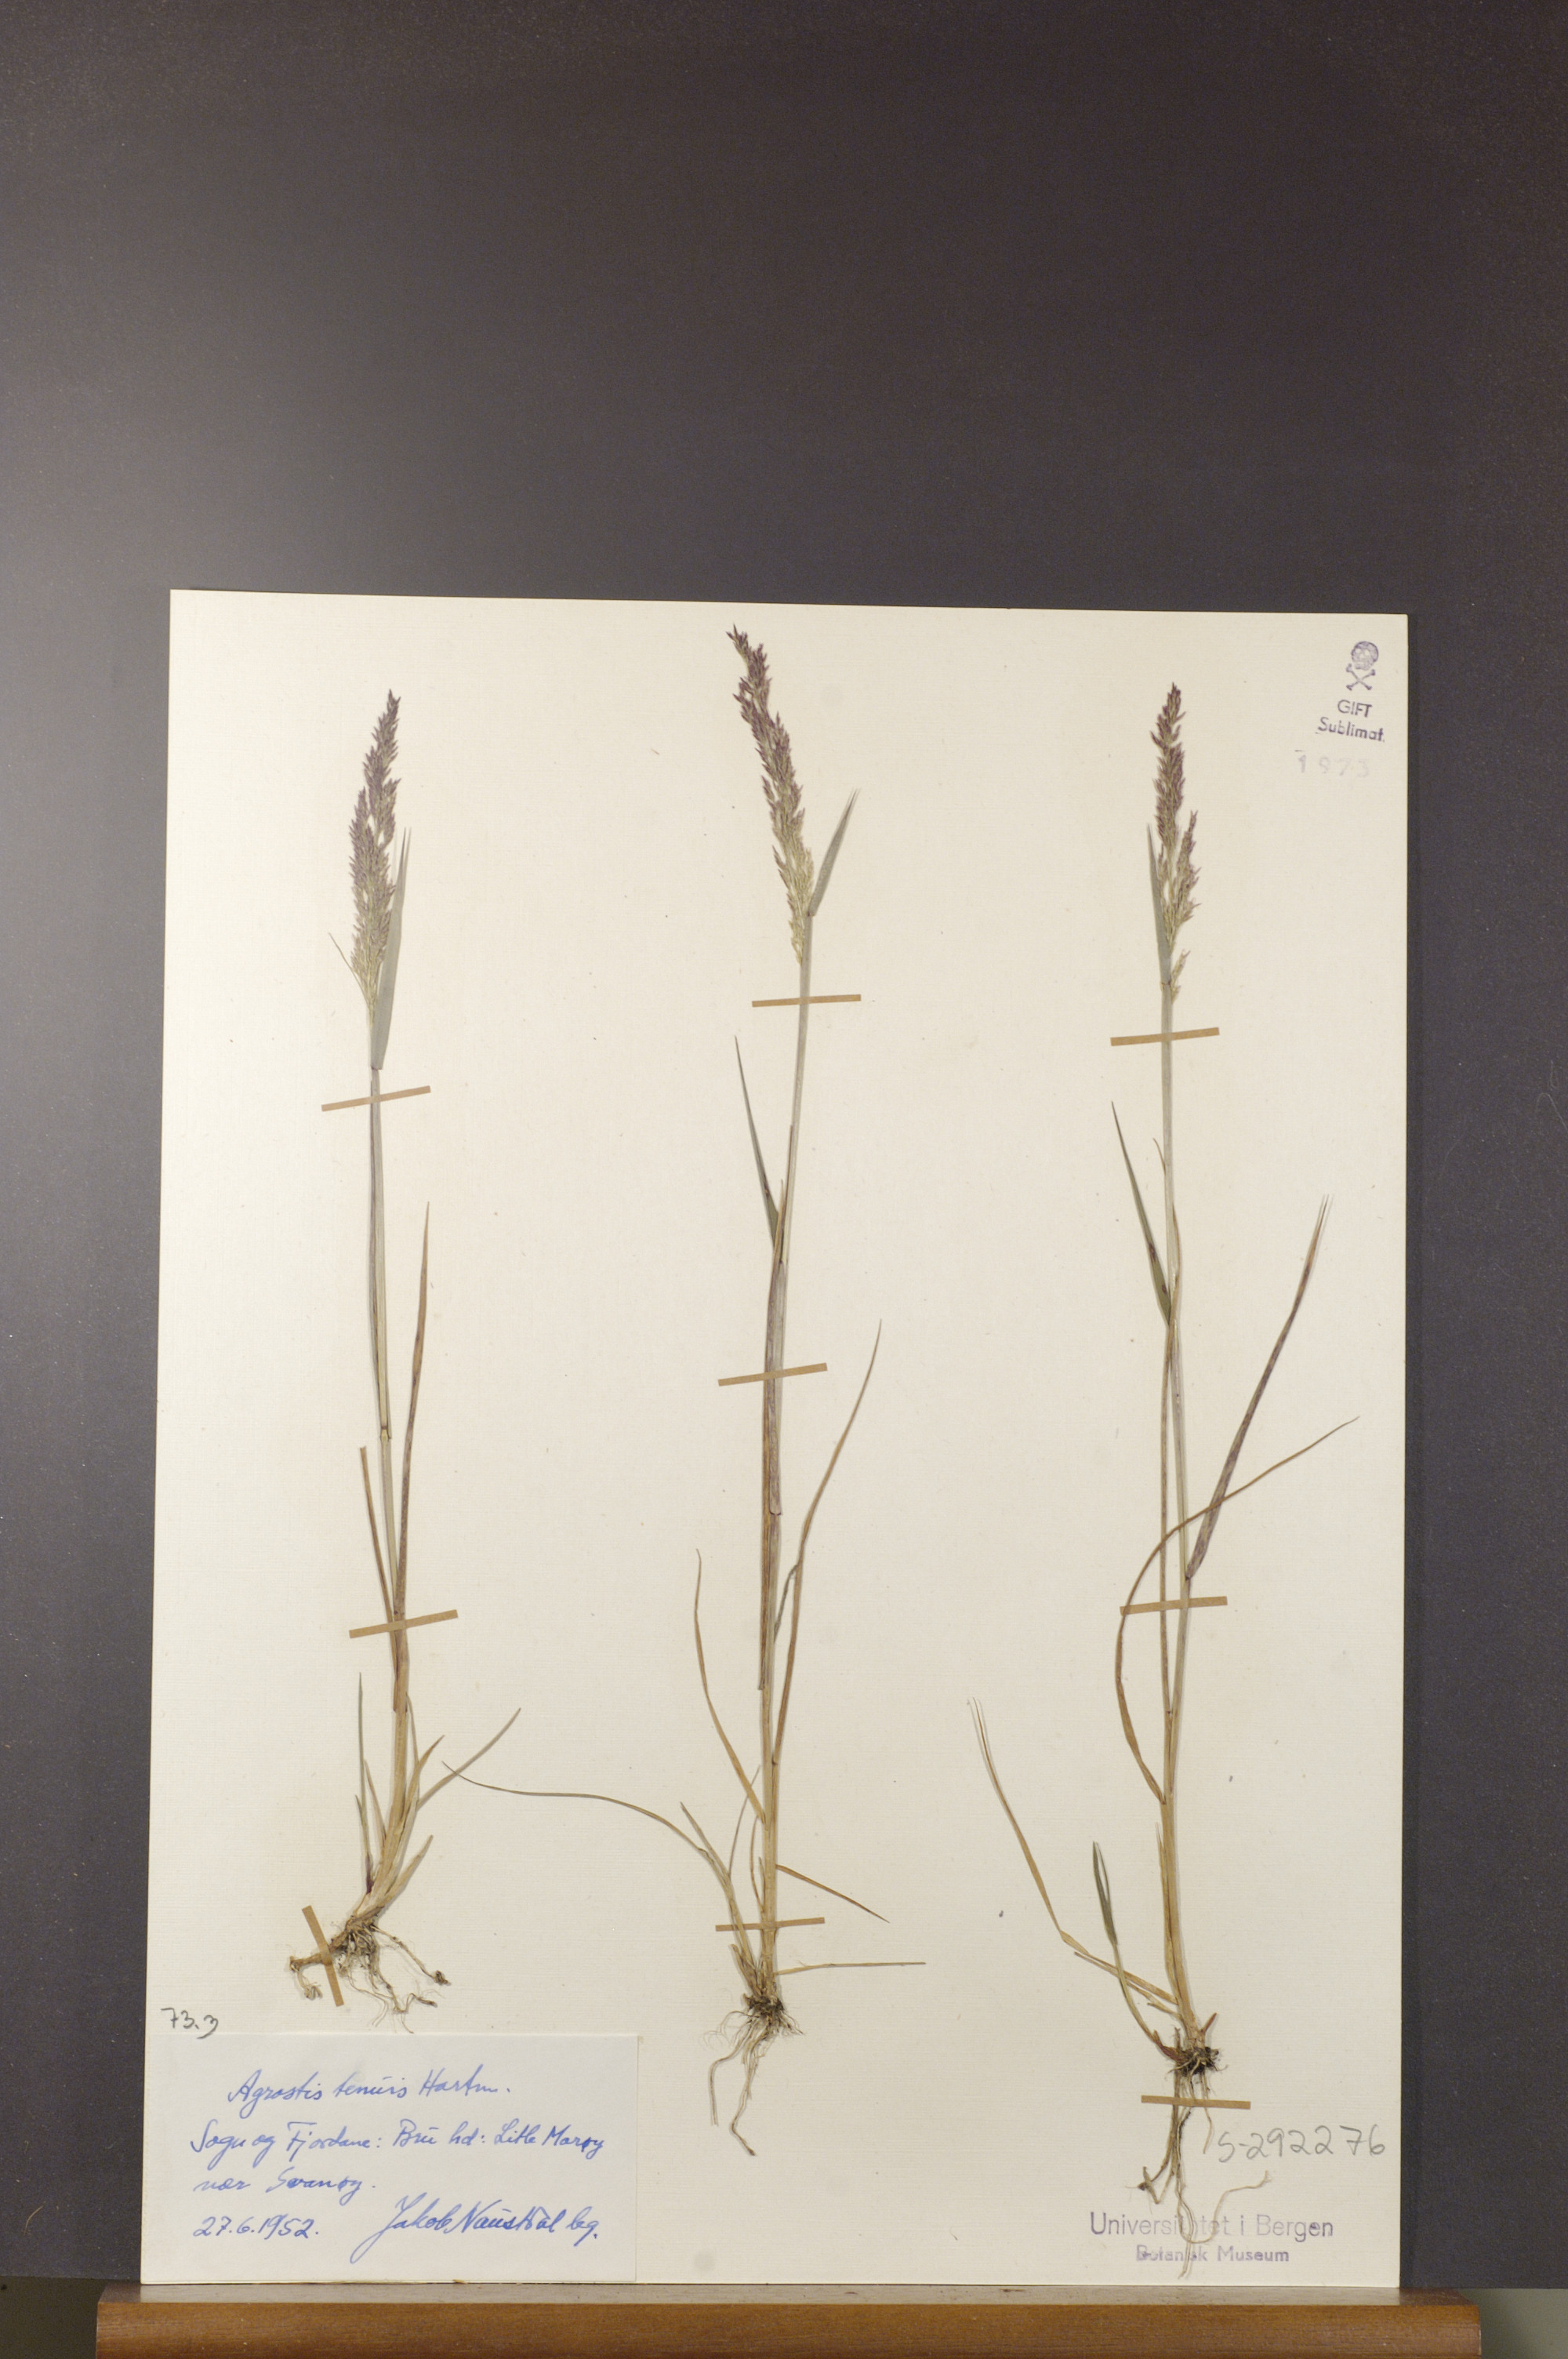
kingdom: Plantae
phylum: Tracheophyta
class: Liliopsida
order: Poales
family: Poaceae
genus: Agrostis
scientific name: Agrostis capillaris
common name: Colonial bentgrass
